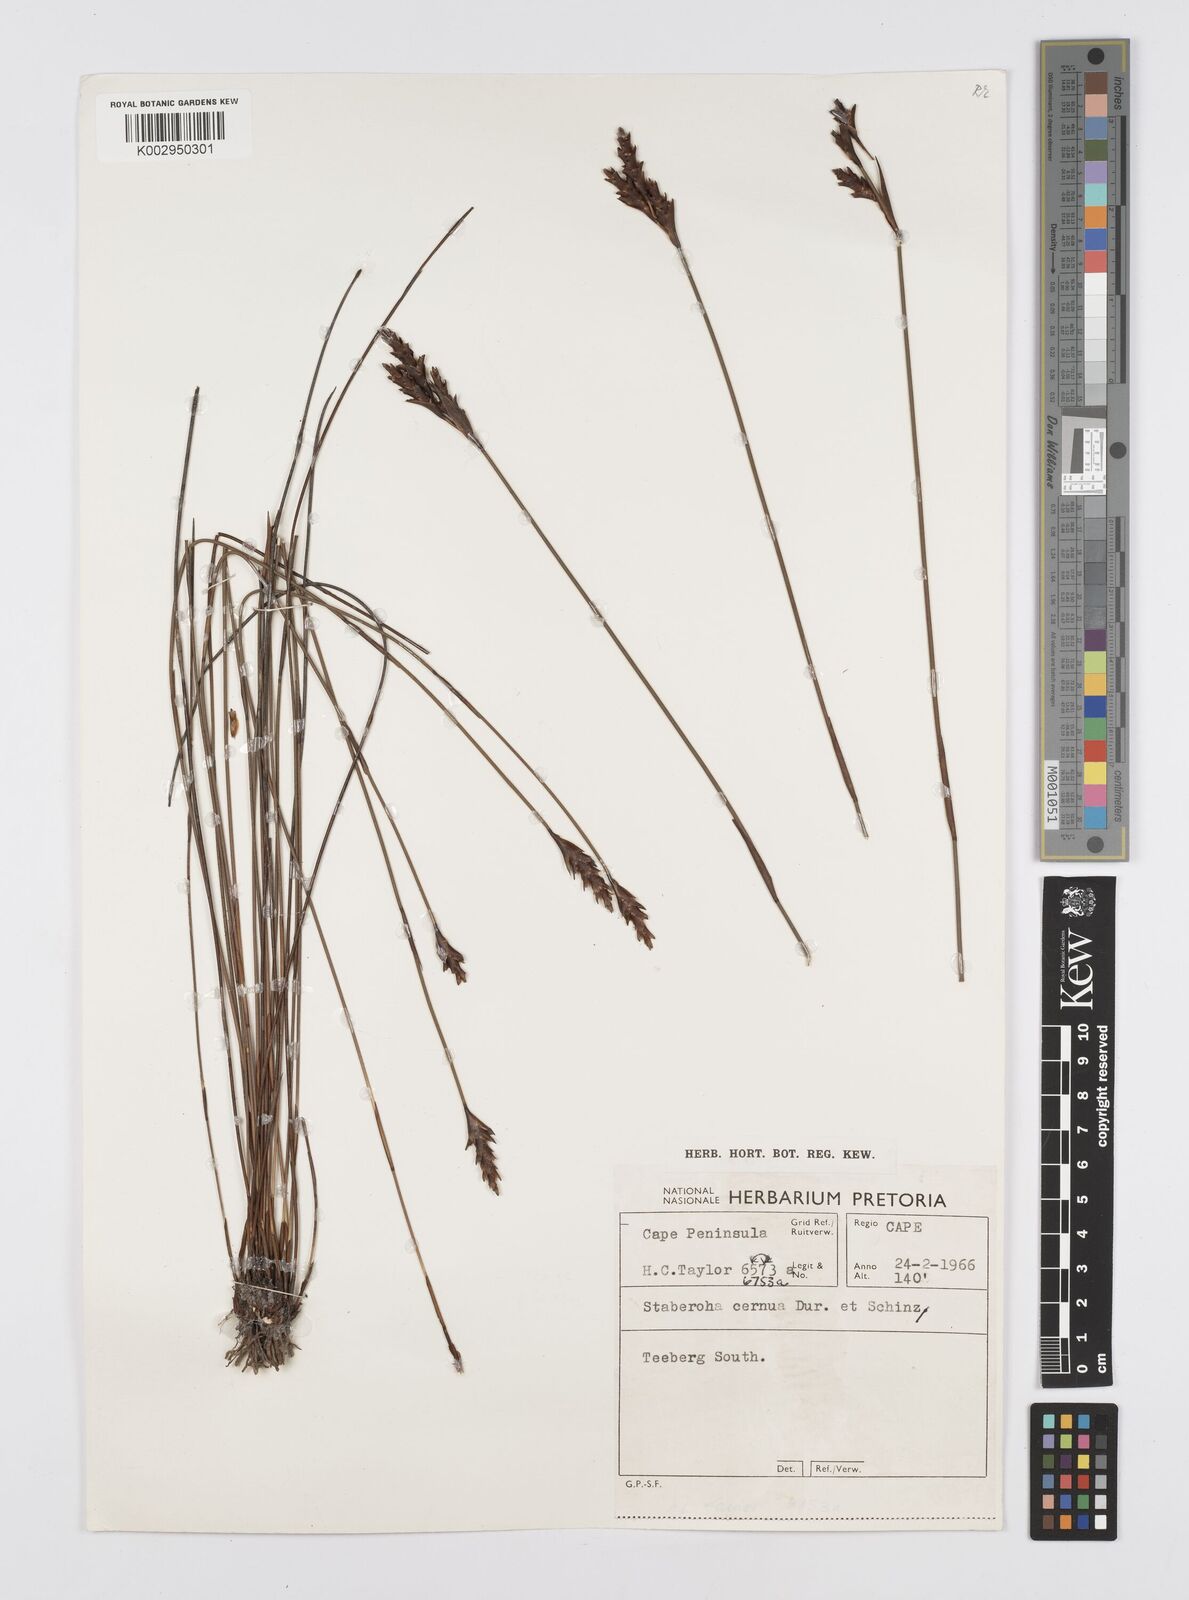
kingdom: Plantae
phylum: Tracheophyta
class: Liliopsida
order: Poales
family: Restionaceae
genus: Staberoha
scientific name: Staberoha cernua
